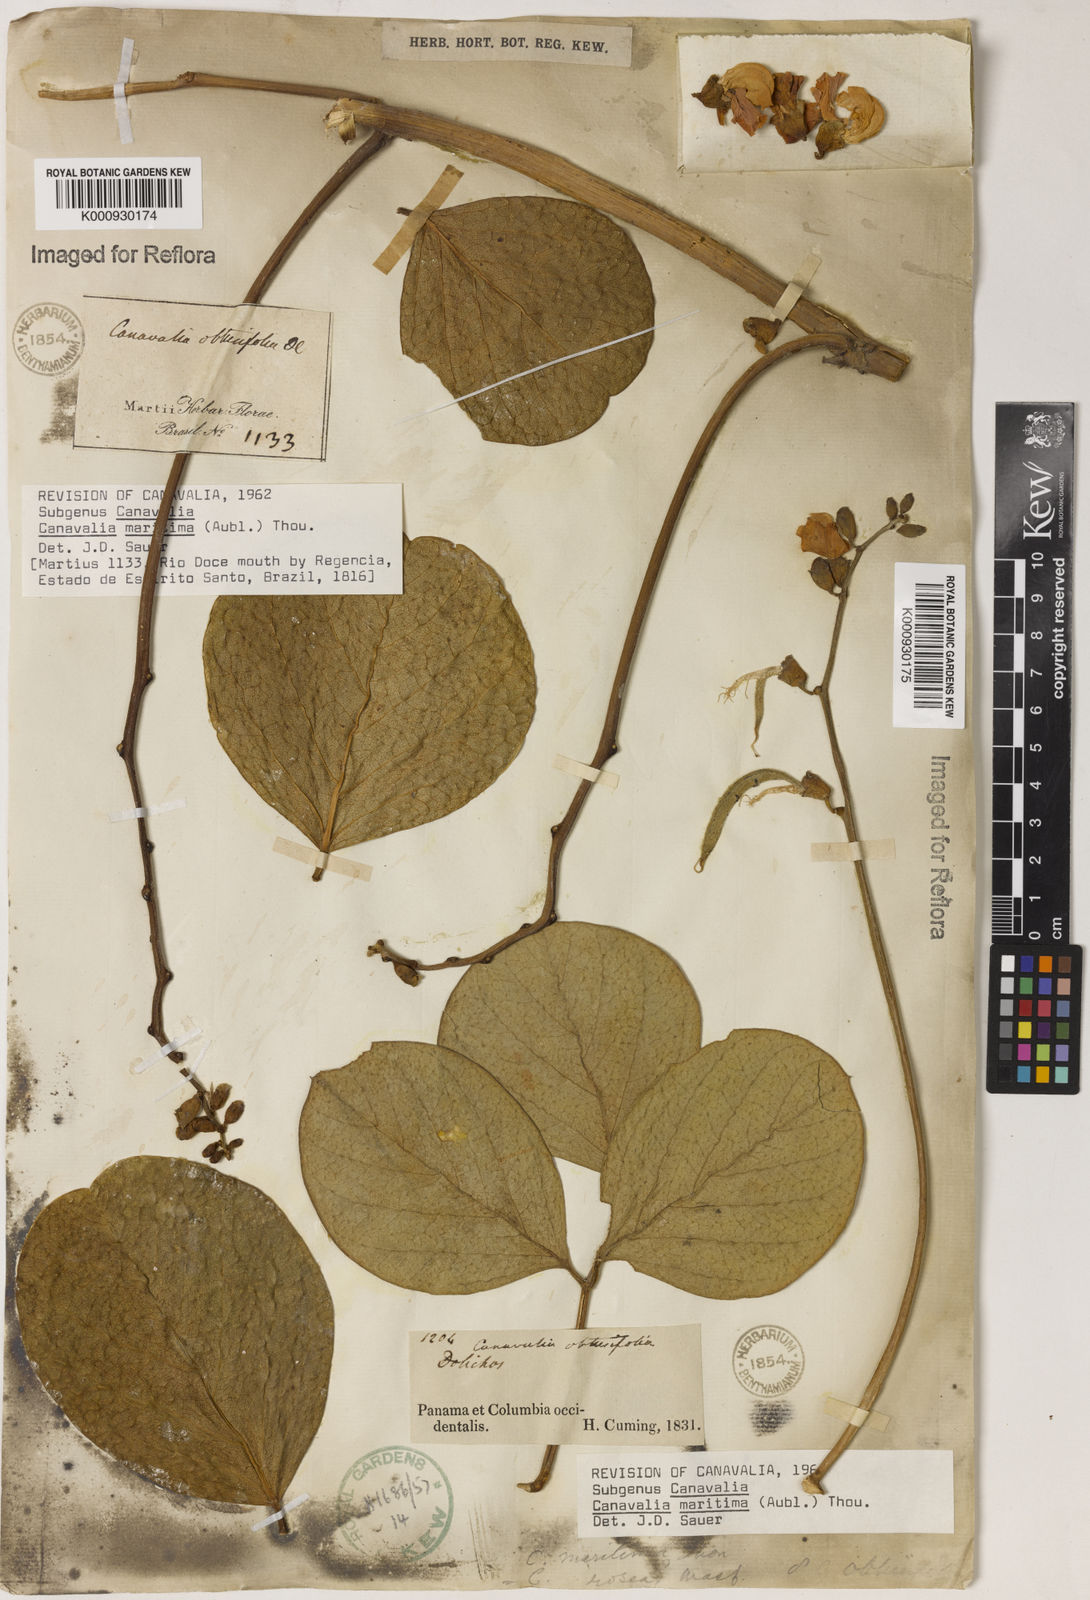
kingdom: Plantae
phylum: Tracheophyta
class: Magnoliopsida
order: Fabales
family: Fabaceae
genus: Canavalia
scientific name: Canavalia rosea
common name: Beach-bean
